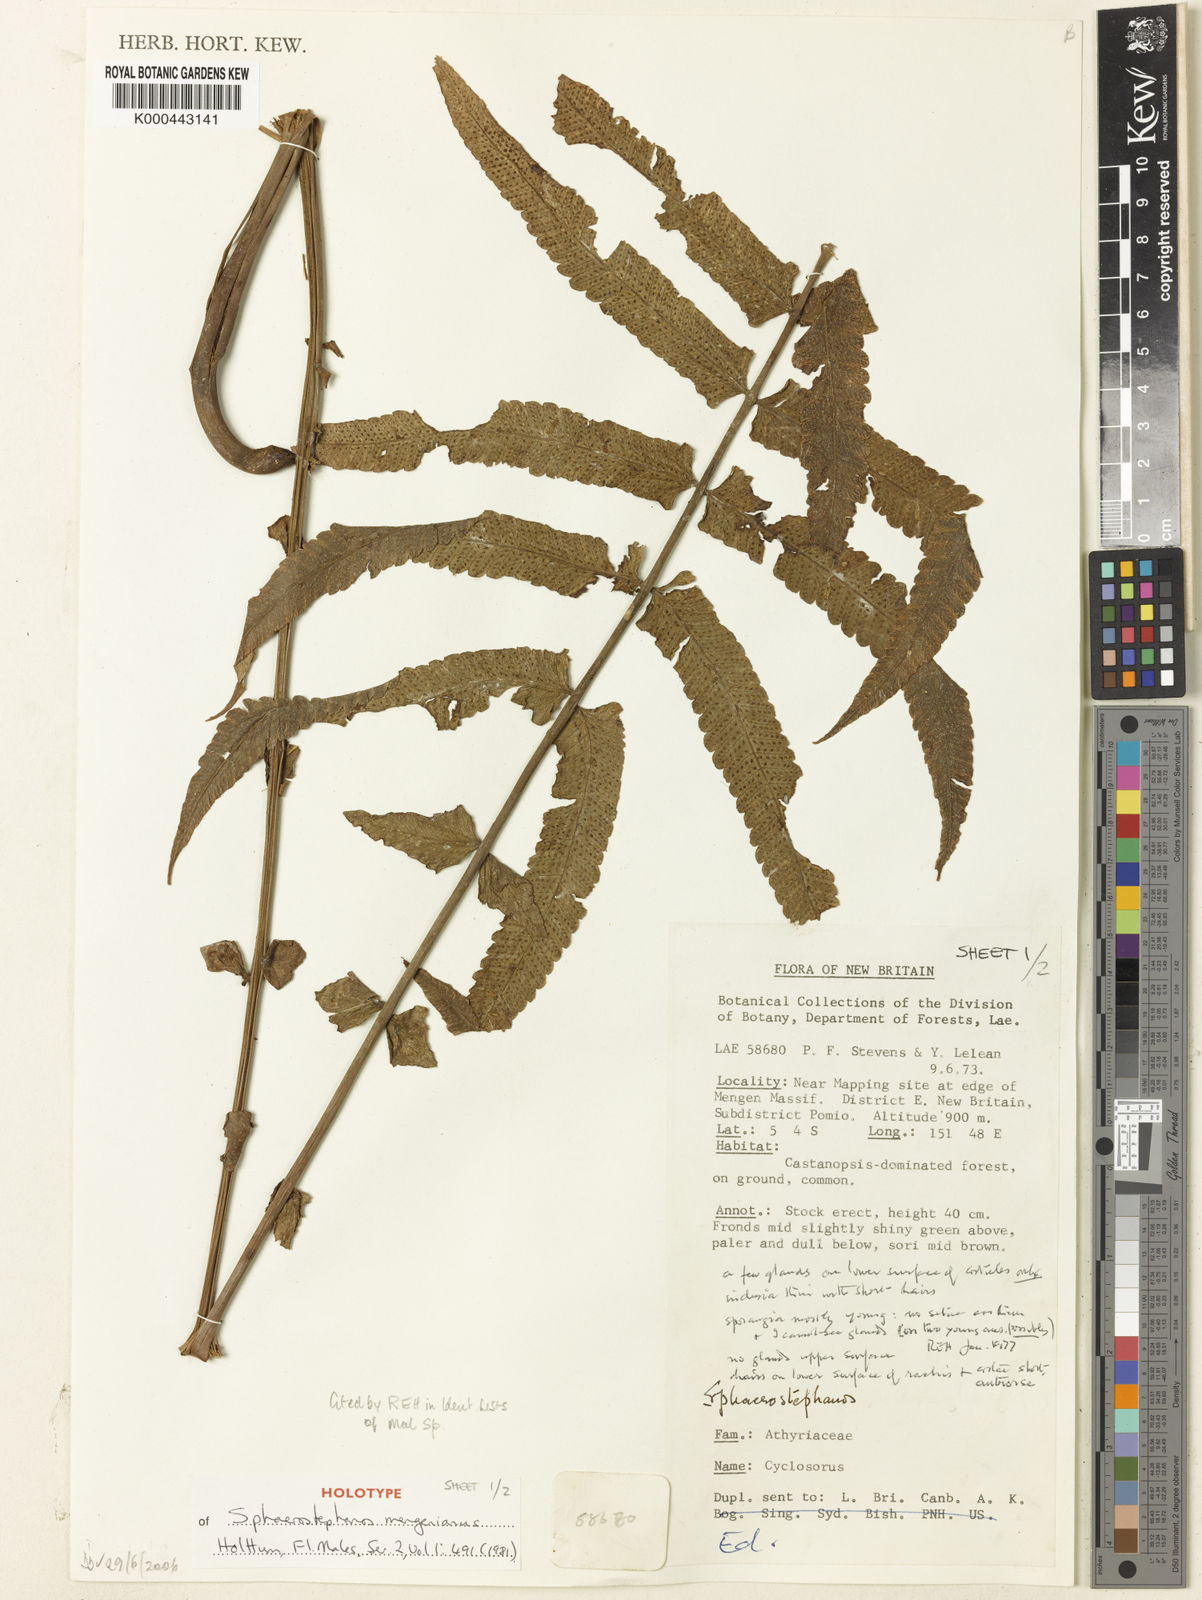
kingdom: Plantae
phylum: Tracheophyta
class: Polypodiopsida
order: Polypodiales
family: Thelypteridaceae
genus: Sphaerostephanos
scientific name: Sphaerostephanos mengenianus
